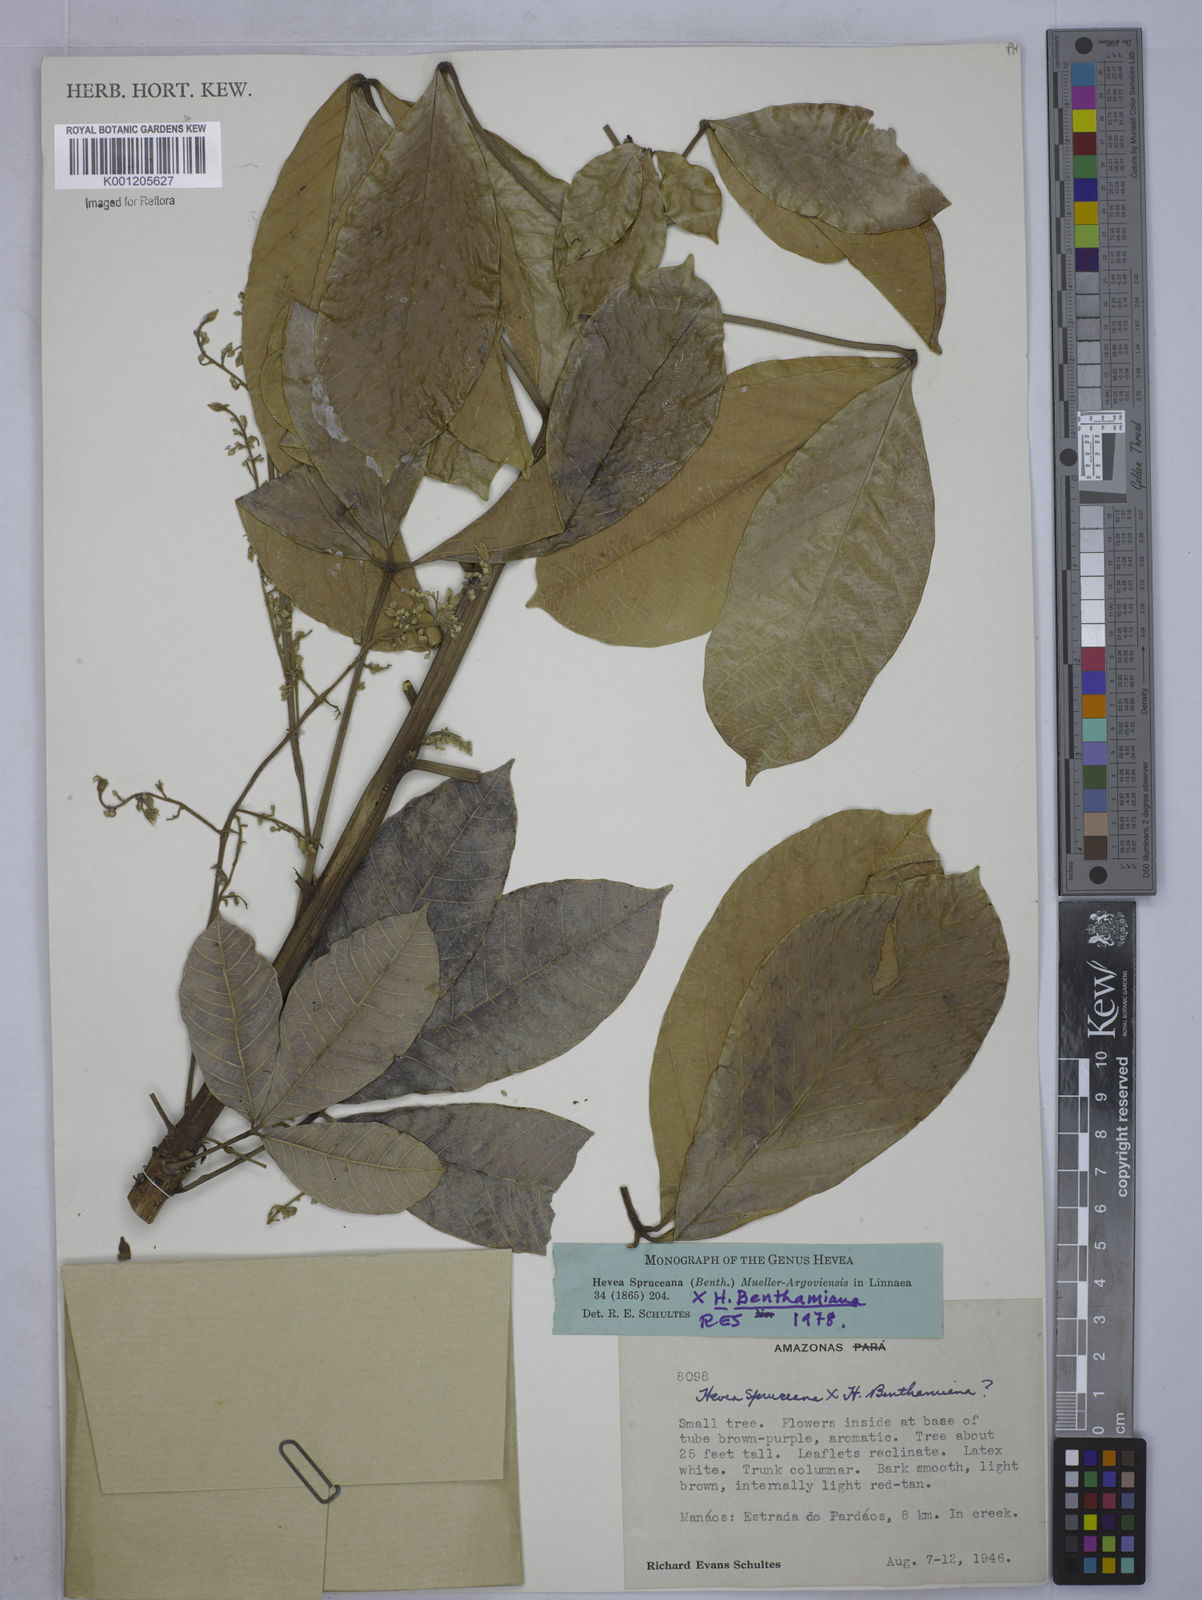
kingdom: Plantae
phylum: Tracheophyta
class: Magnoliopsida
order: Malpighiales
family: Euphorbiaceae
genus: Hevea
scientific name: Hevea
